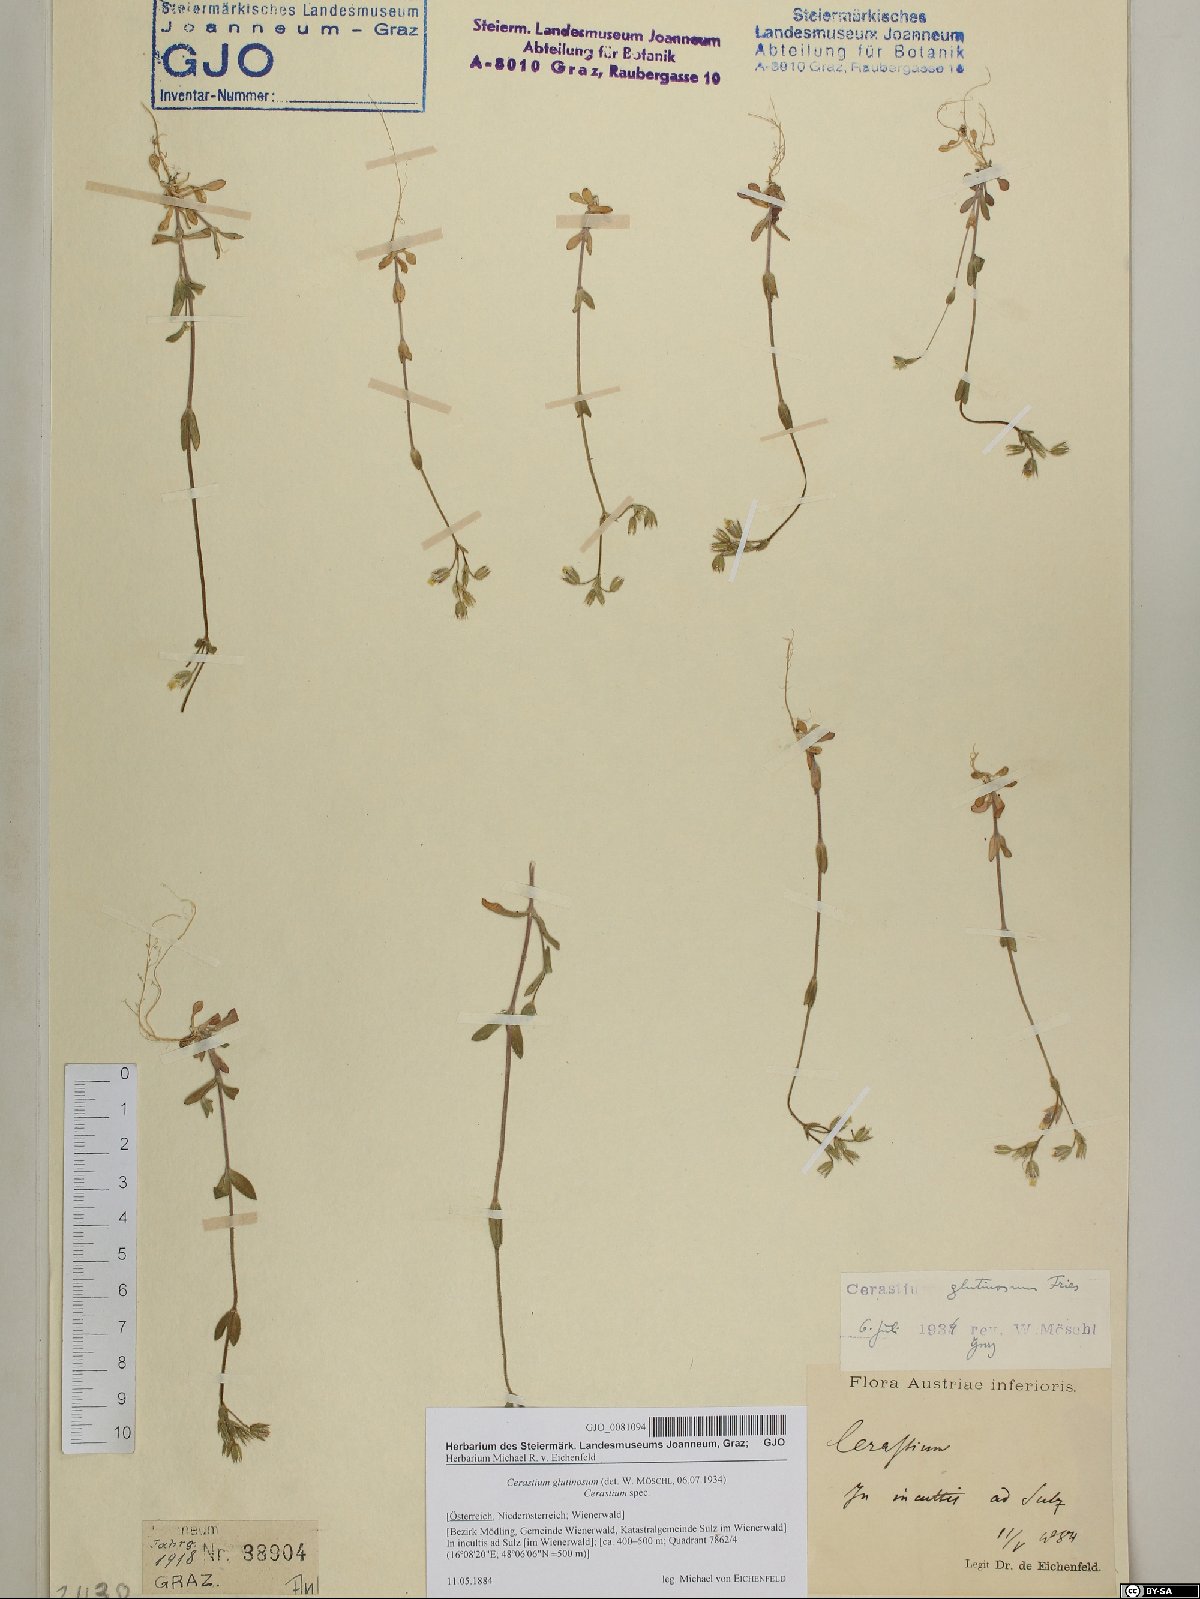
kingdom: Plantae
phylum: Tracheophyta
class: Magnoliopsida
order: Caryophyllales
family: Caryophyllaceae
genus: Cerastium
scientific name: Cerastium glutinosum
